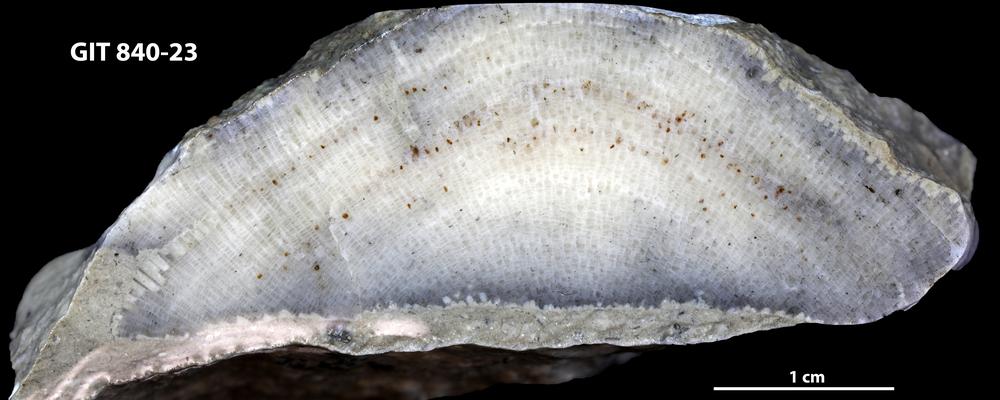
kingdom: Animalia
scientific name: Animalia
